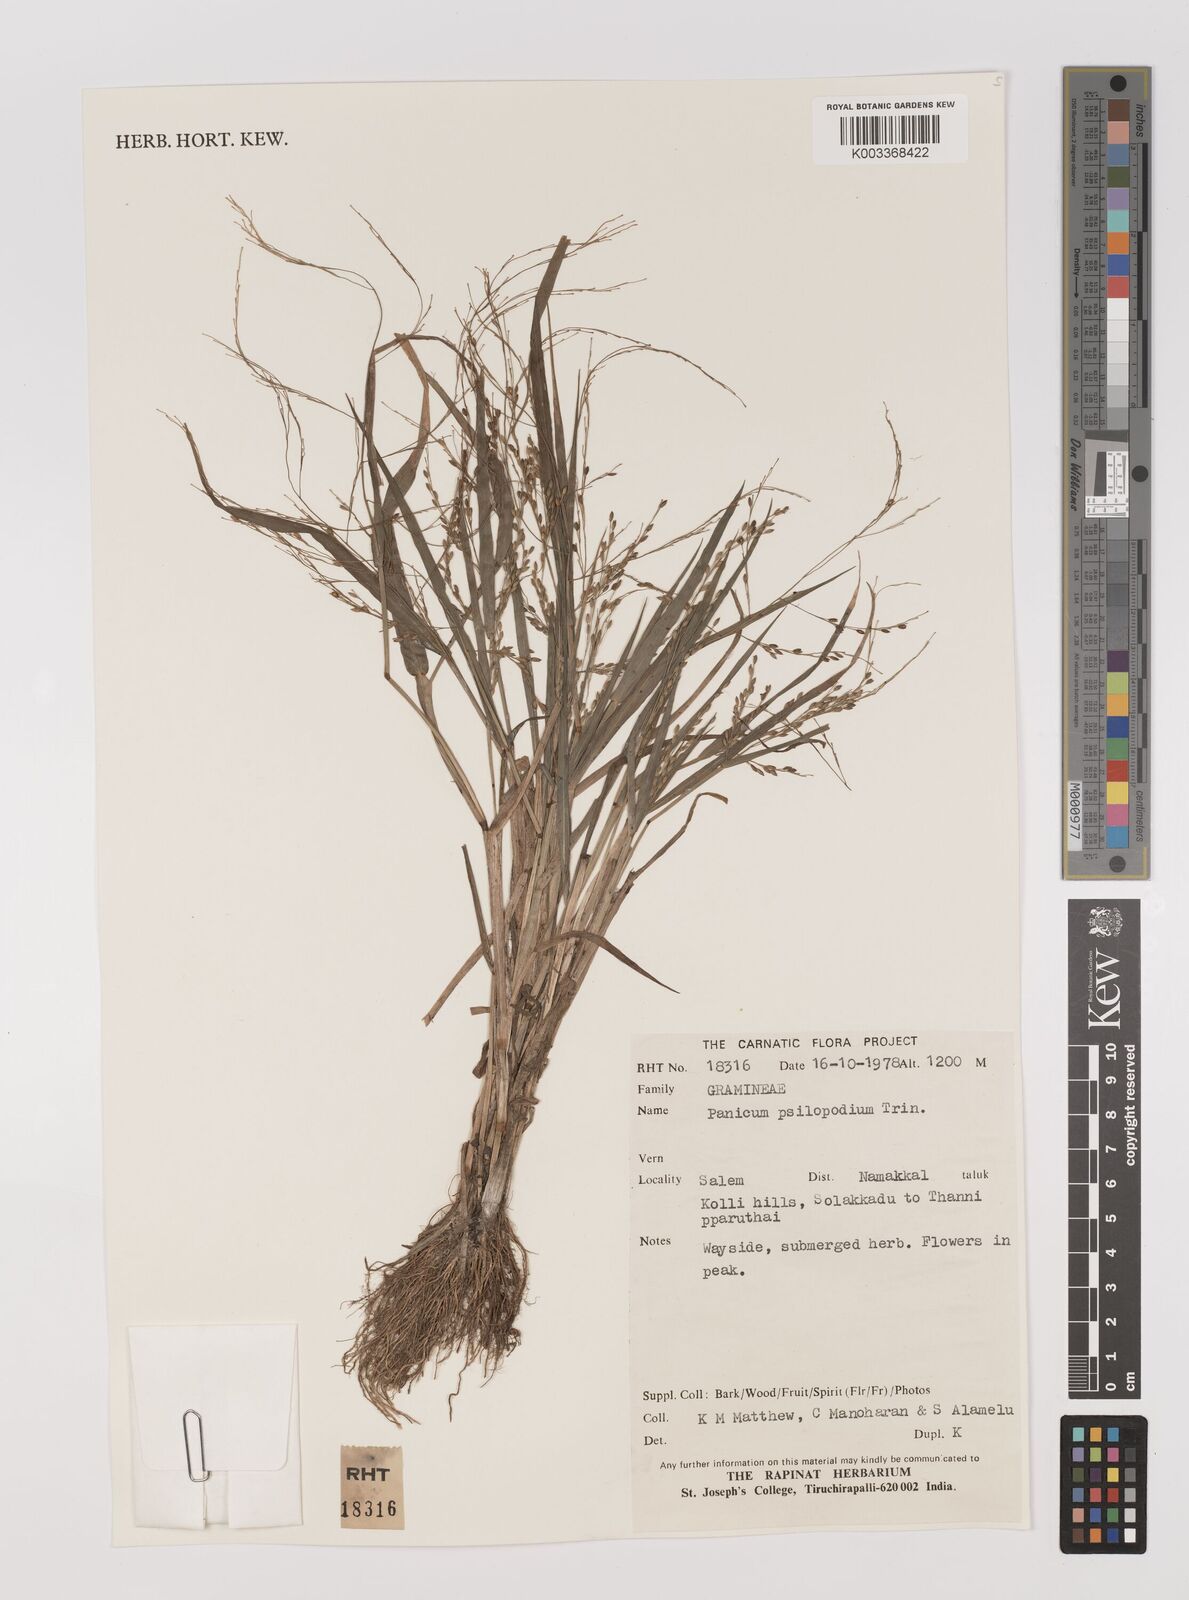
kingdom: Plantae
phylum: Tracheophyta
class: Liliopsida
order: Poales
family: Poaceae
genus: Panicum
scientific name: Panicum sumatrense
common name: Little millet
